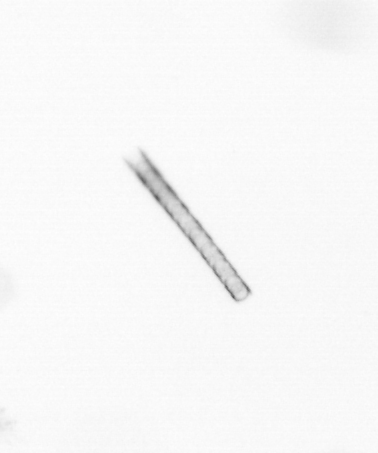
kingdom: Chromista
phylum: Ochrophyta
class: Bacillariophyceae
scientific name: Bacillariophyceae
